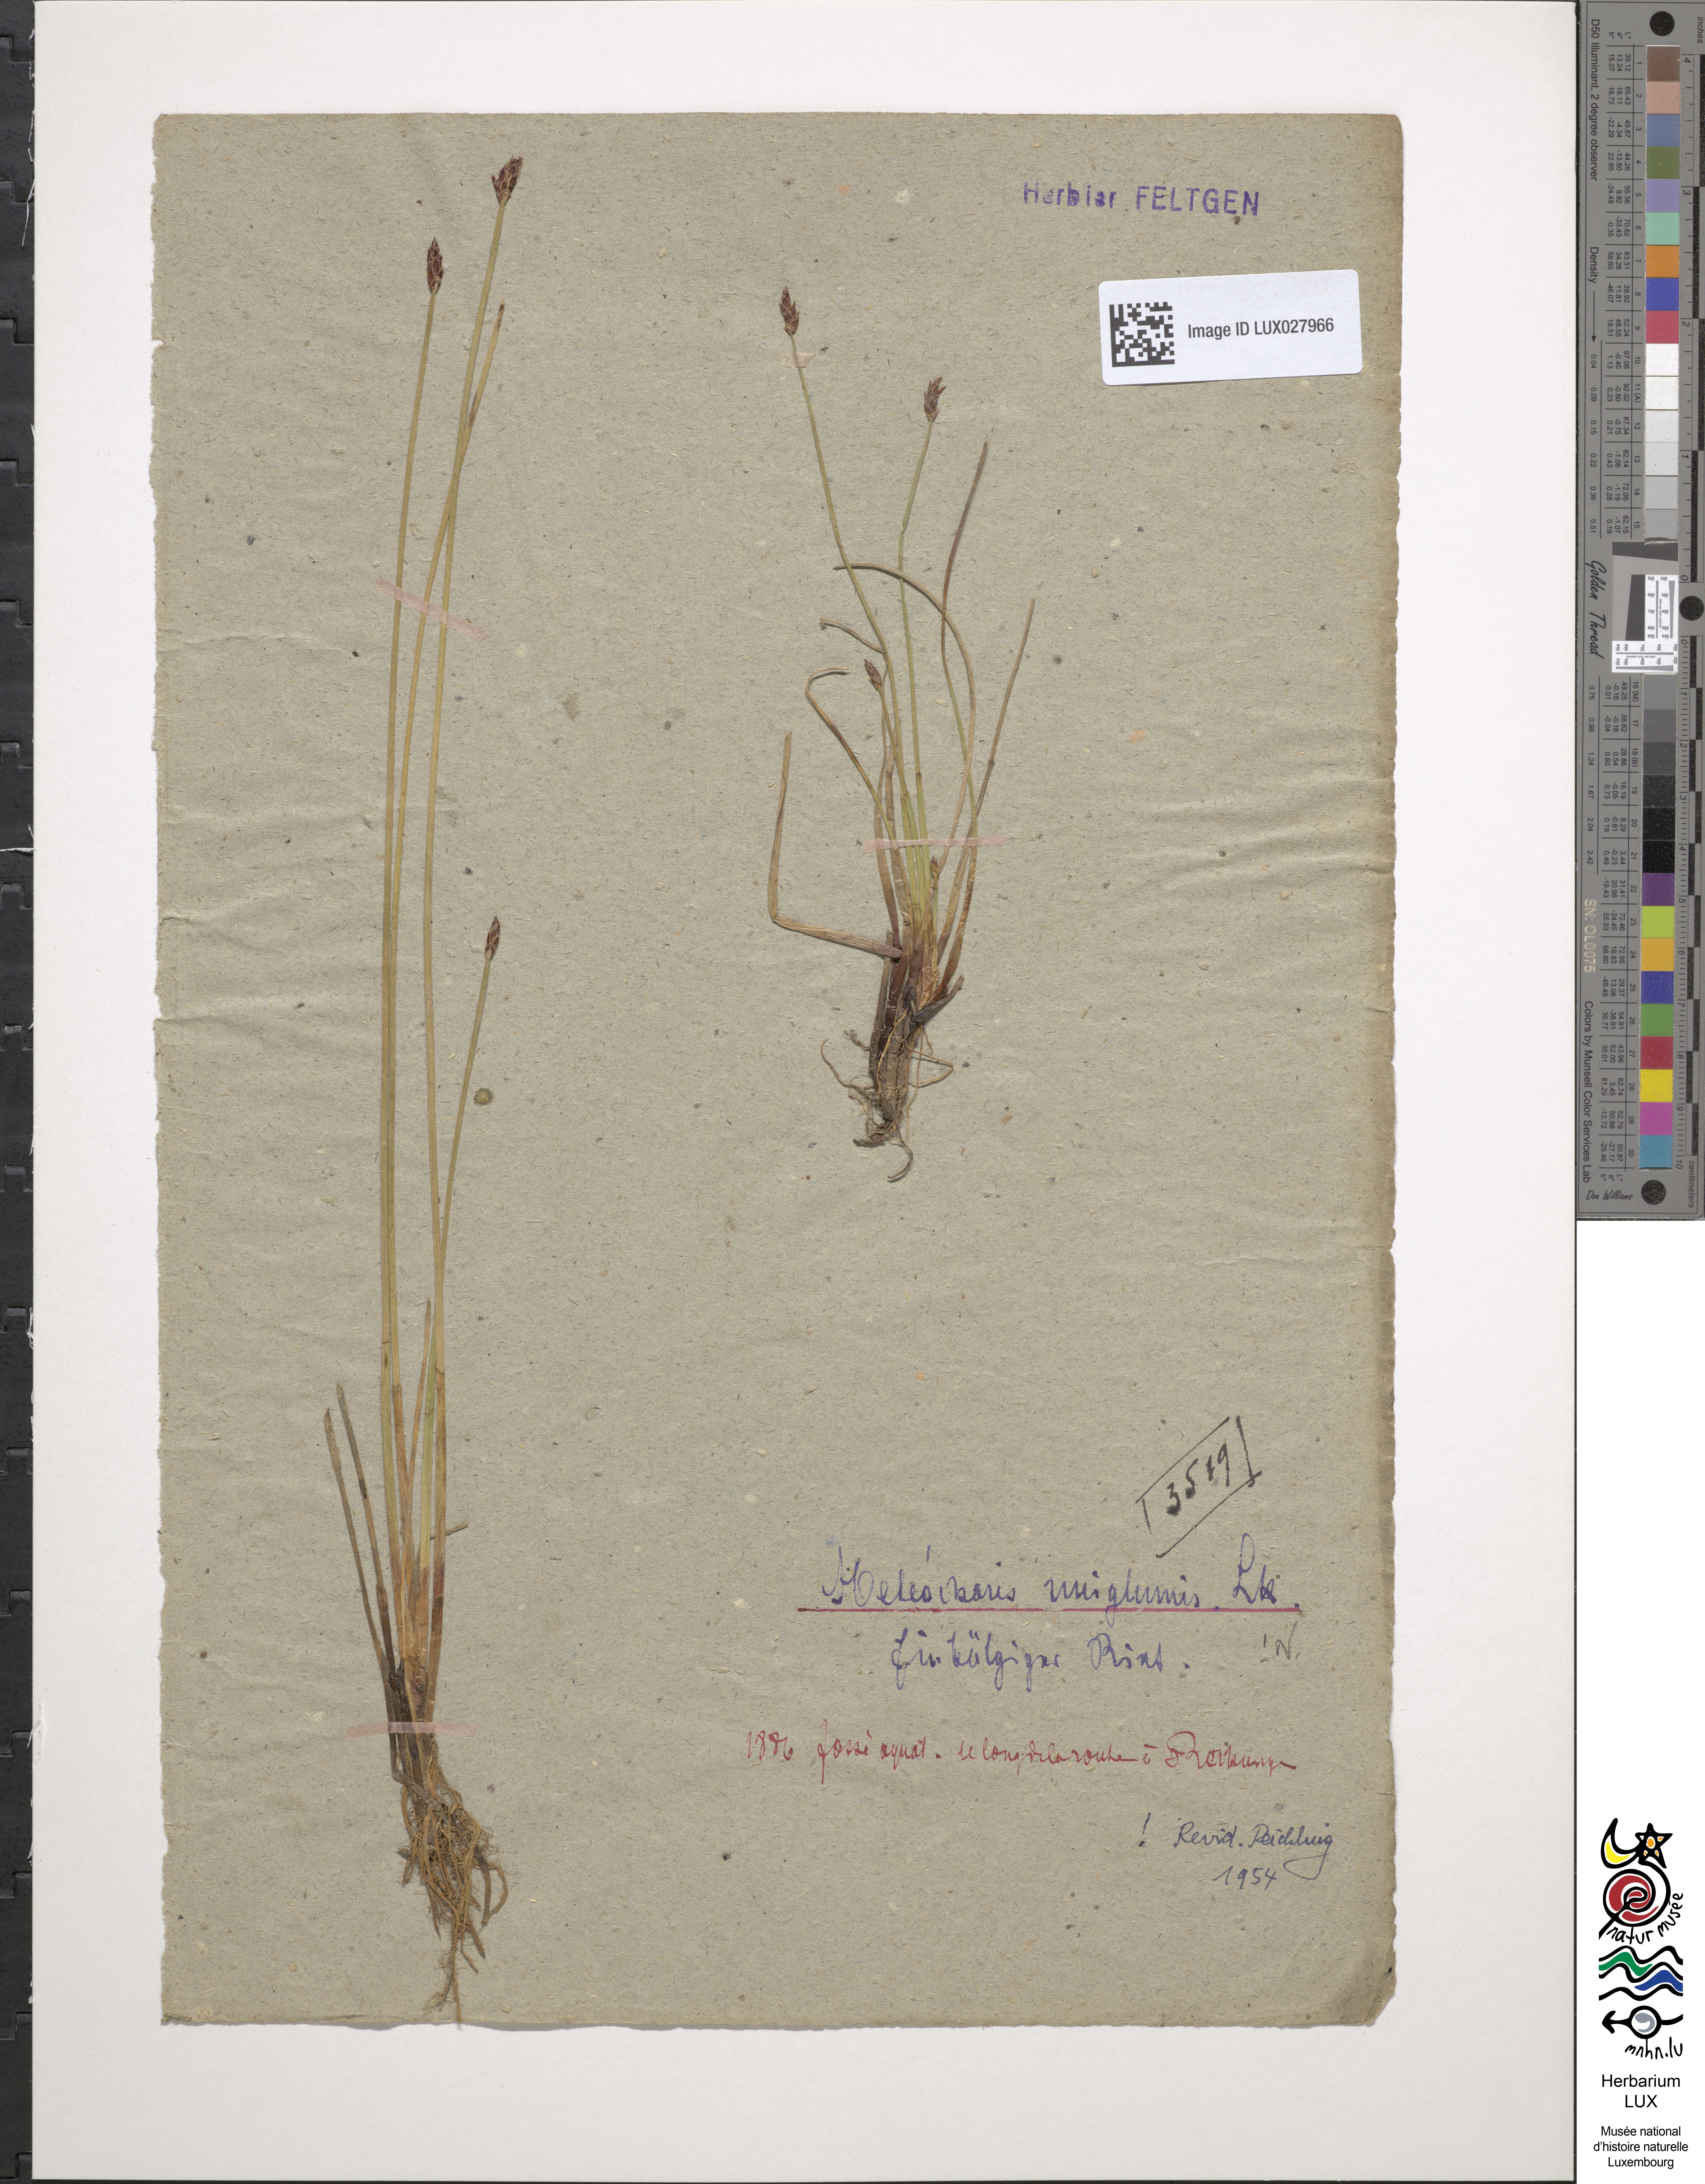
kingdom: Plantae
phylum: Tracheophyta
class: Liliopsida
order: Poales
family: Cyperaceae
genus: Eleocharis
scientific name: Eleocharis uniglumis
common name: Slender spike-rush
